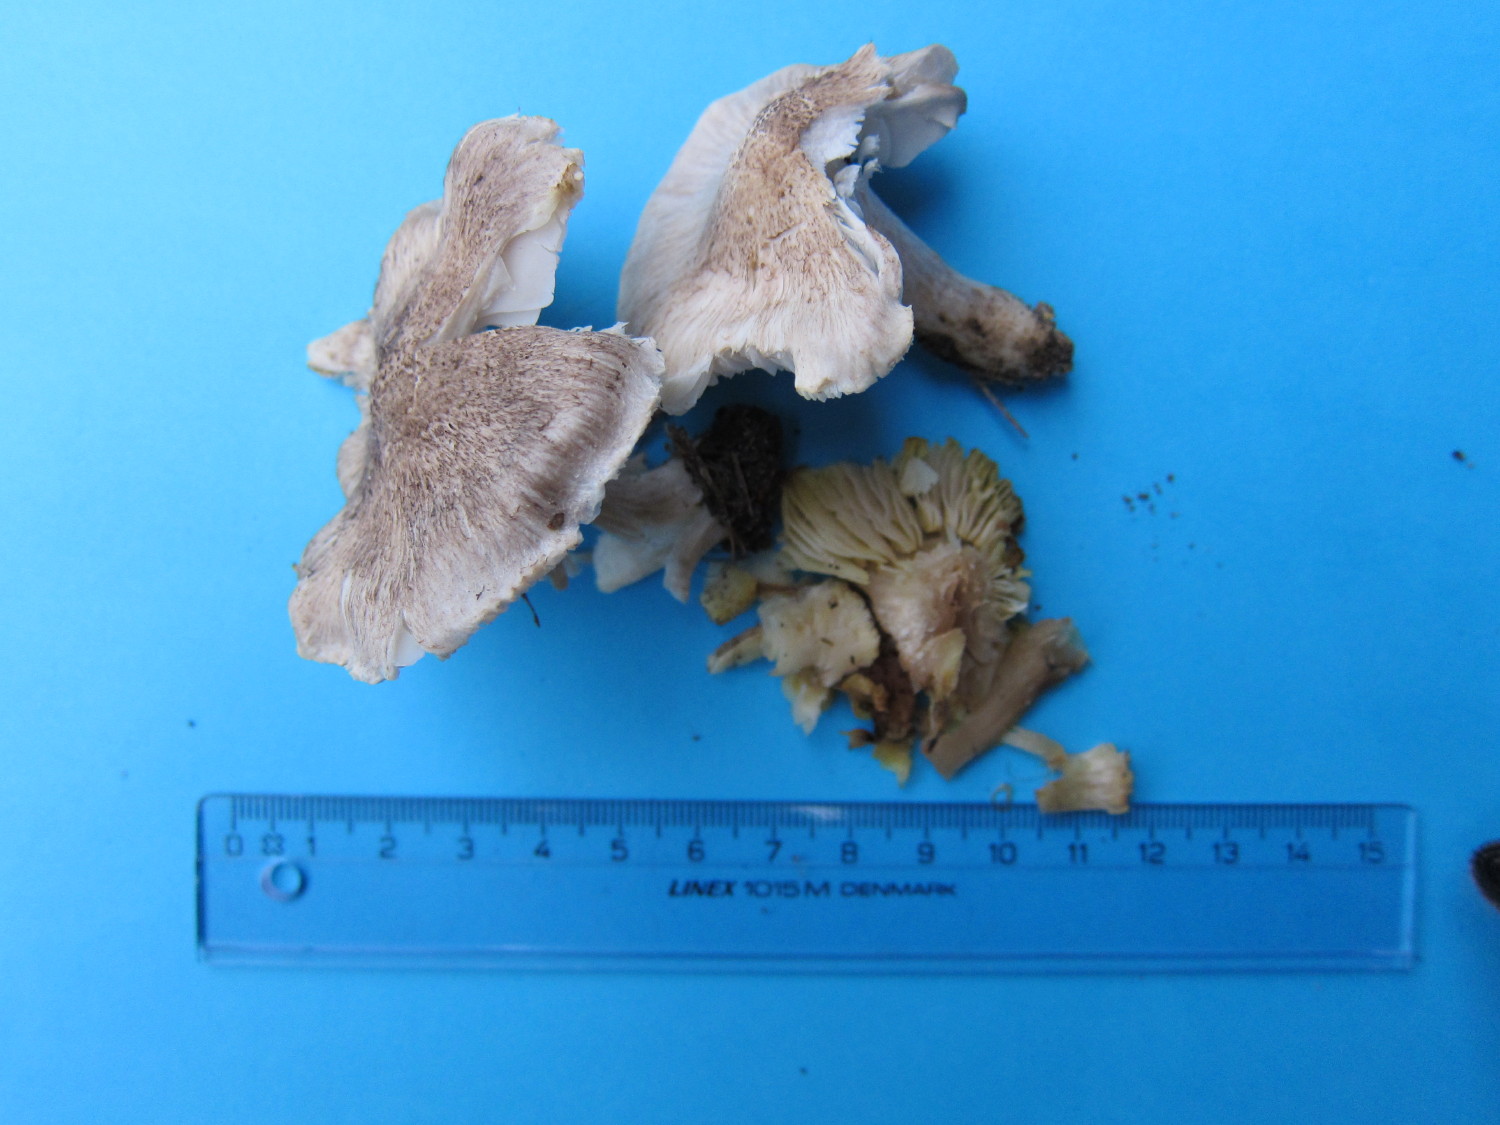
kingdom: Fungi
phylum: Basidiomycota
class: Agaricomycetes
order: Agaricales
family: Tricholomataceae
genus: Tricholoma
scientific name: Tricholoma scalpturatum
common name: gulplettet ridderhat
